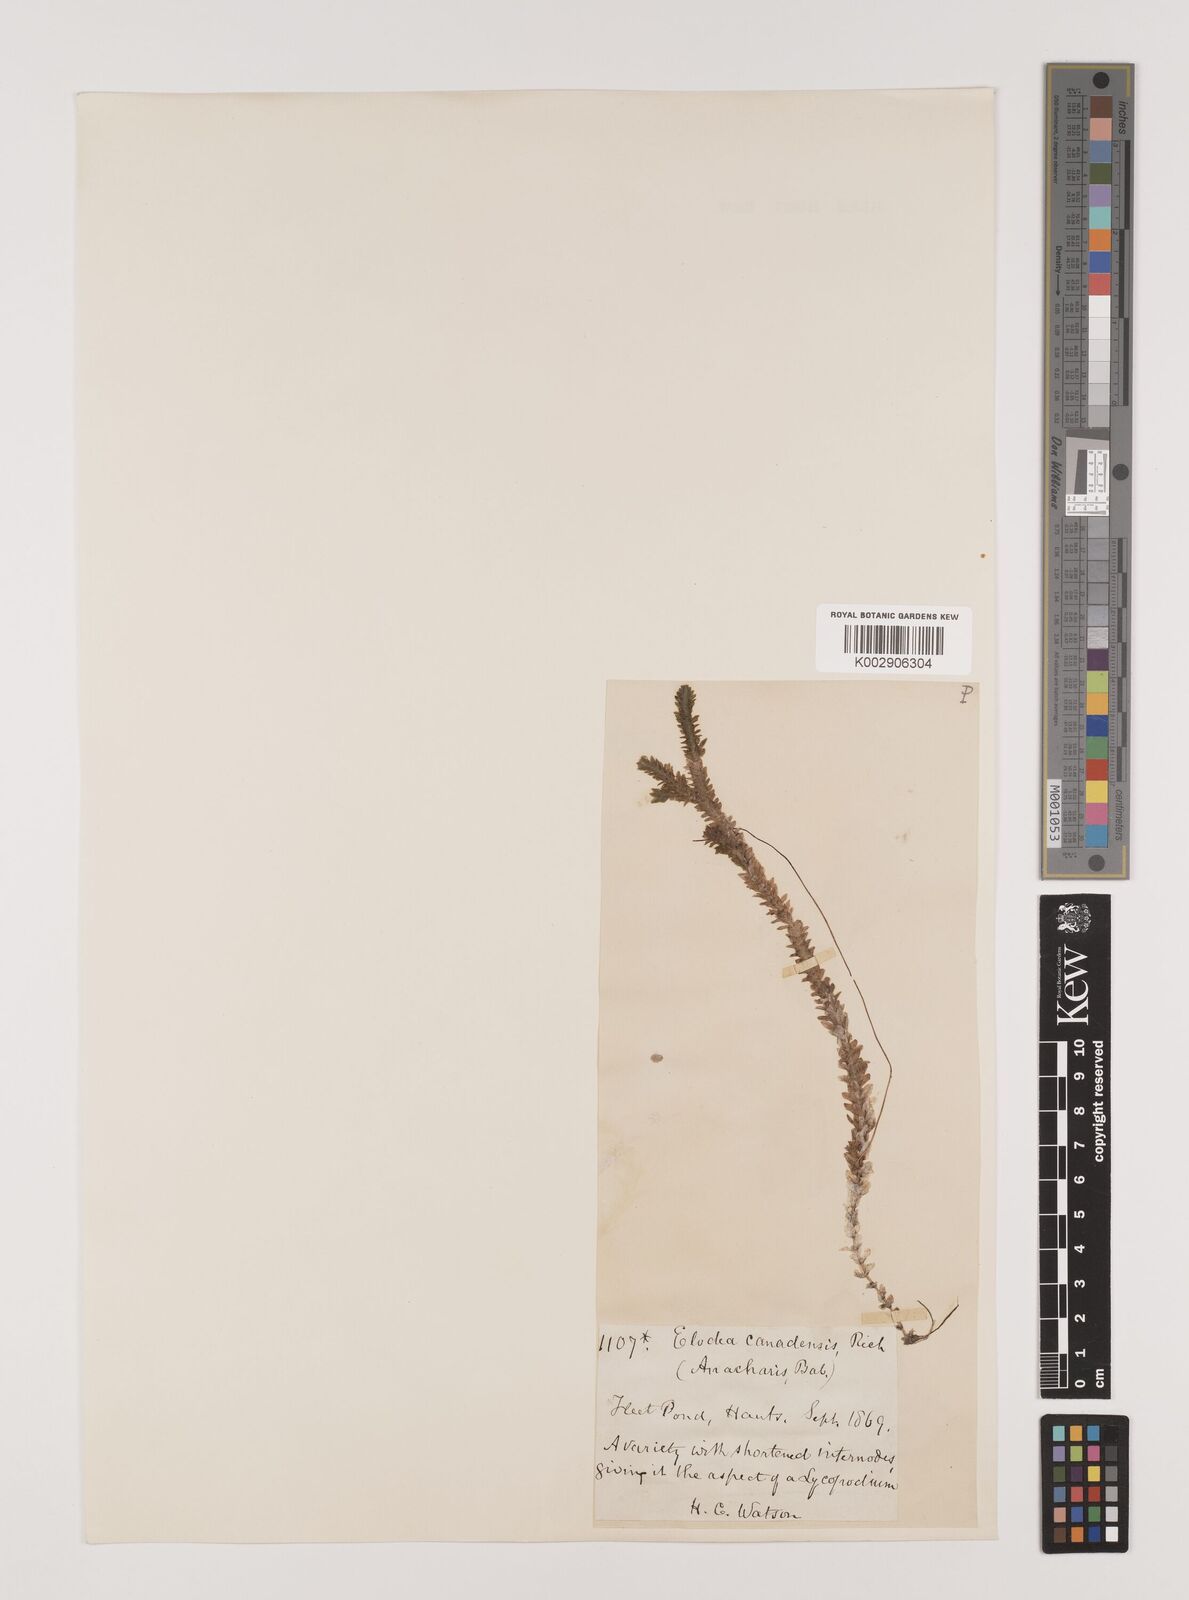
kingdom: Plantae
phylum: Tracheophyta
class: Liliopsida
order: Alismatales
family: Hydrocharitaceae
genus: Elodea
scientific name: Elodea canadensis
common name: Canadian waterweed
